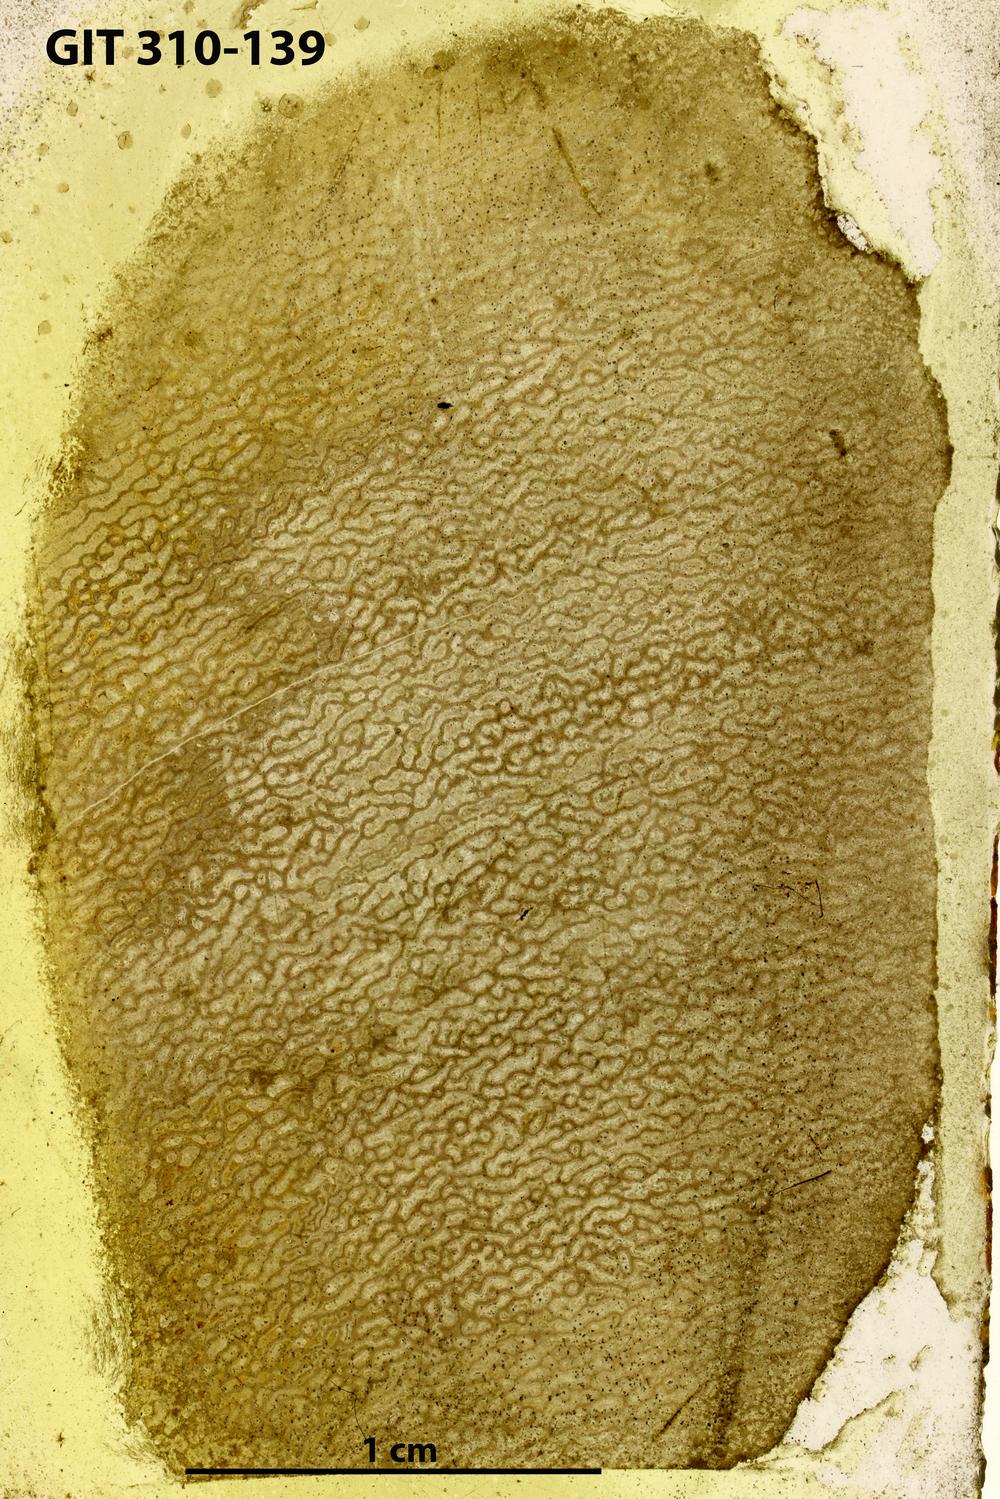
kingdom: Animalia
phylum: Porifera
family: Actinodictyidae
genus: Camptodictyon
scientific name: Camptodictyon
